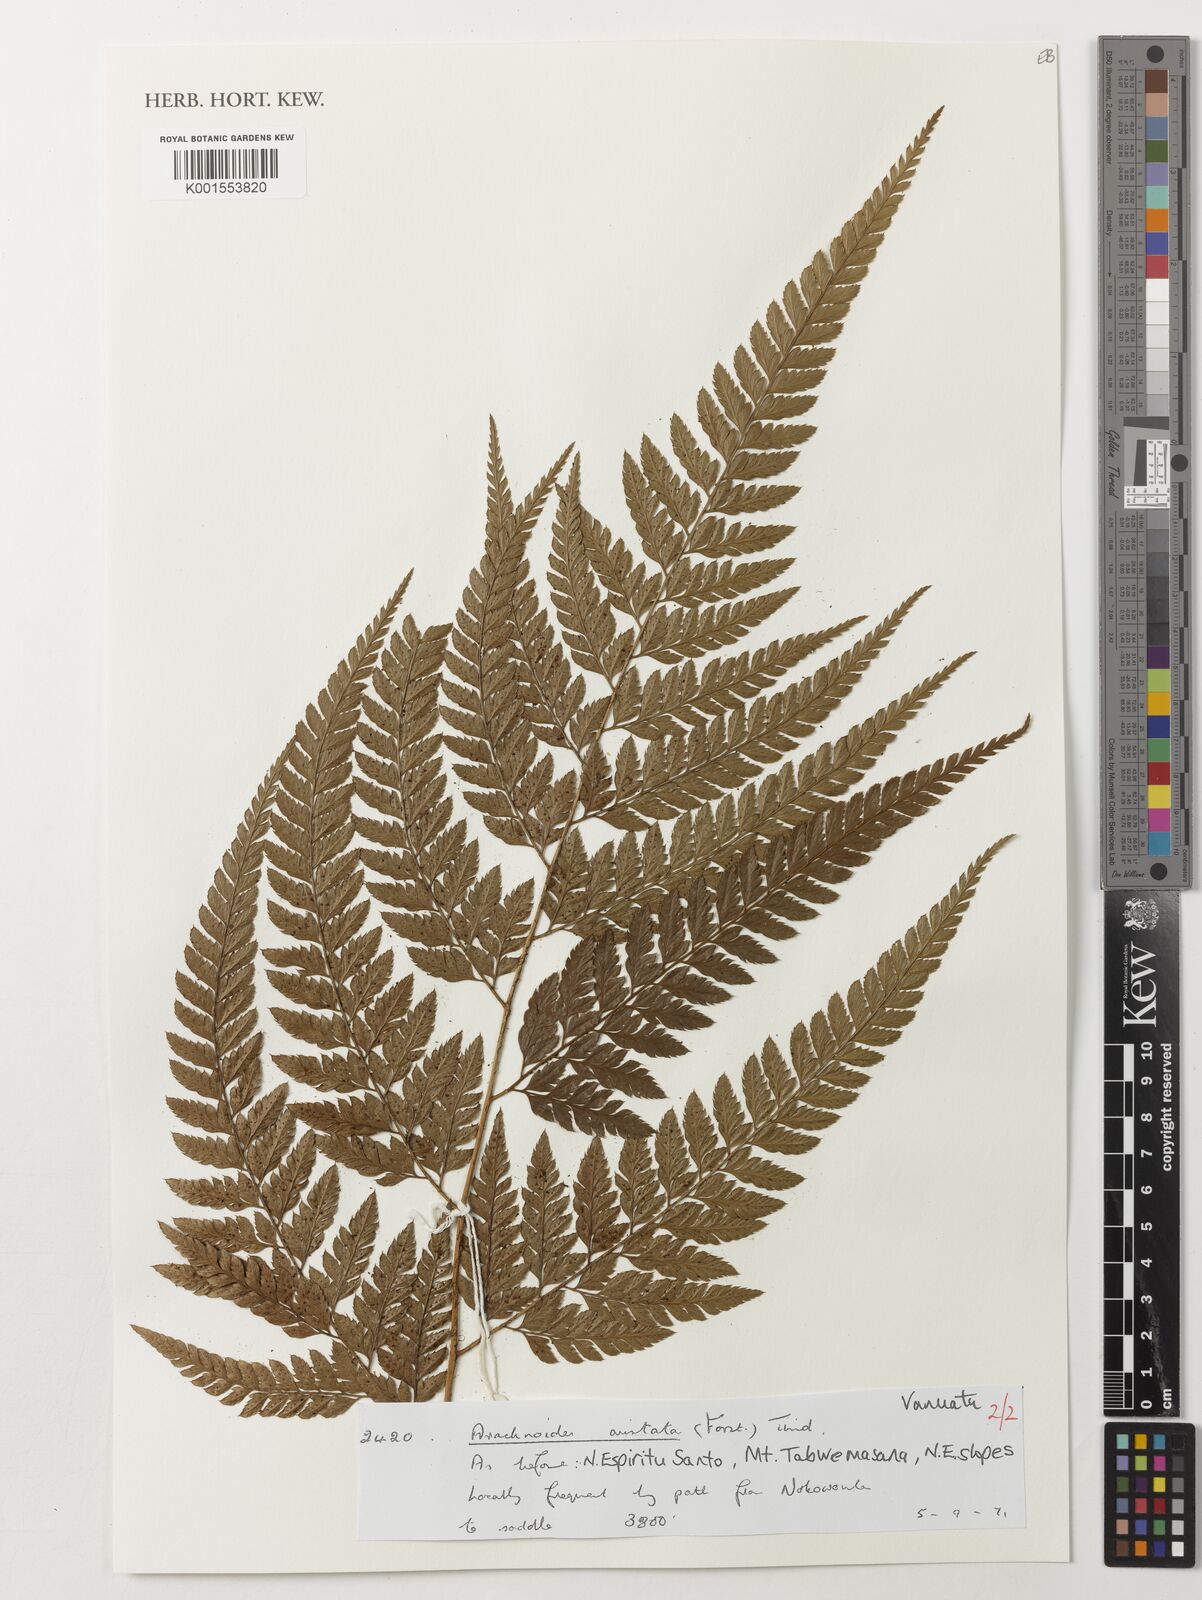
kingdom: Plantae
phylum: Tracheophyta
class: Polypodiopsida
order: Polypodiales
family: Dryopteridaceae
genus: Arachniodes
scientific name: Arachniodes aristata
